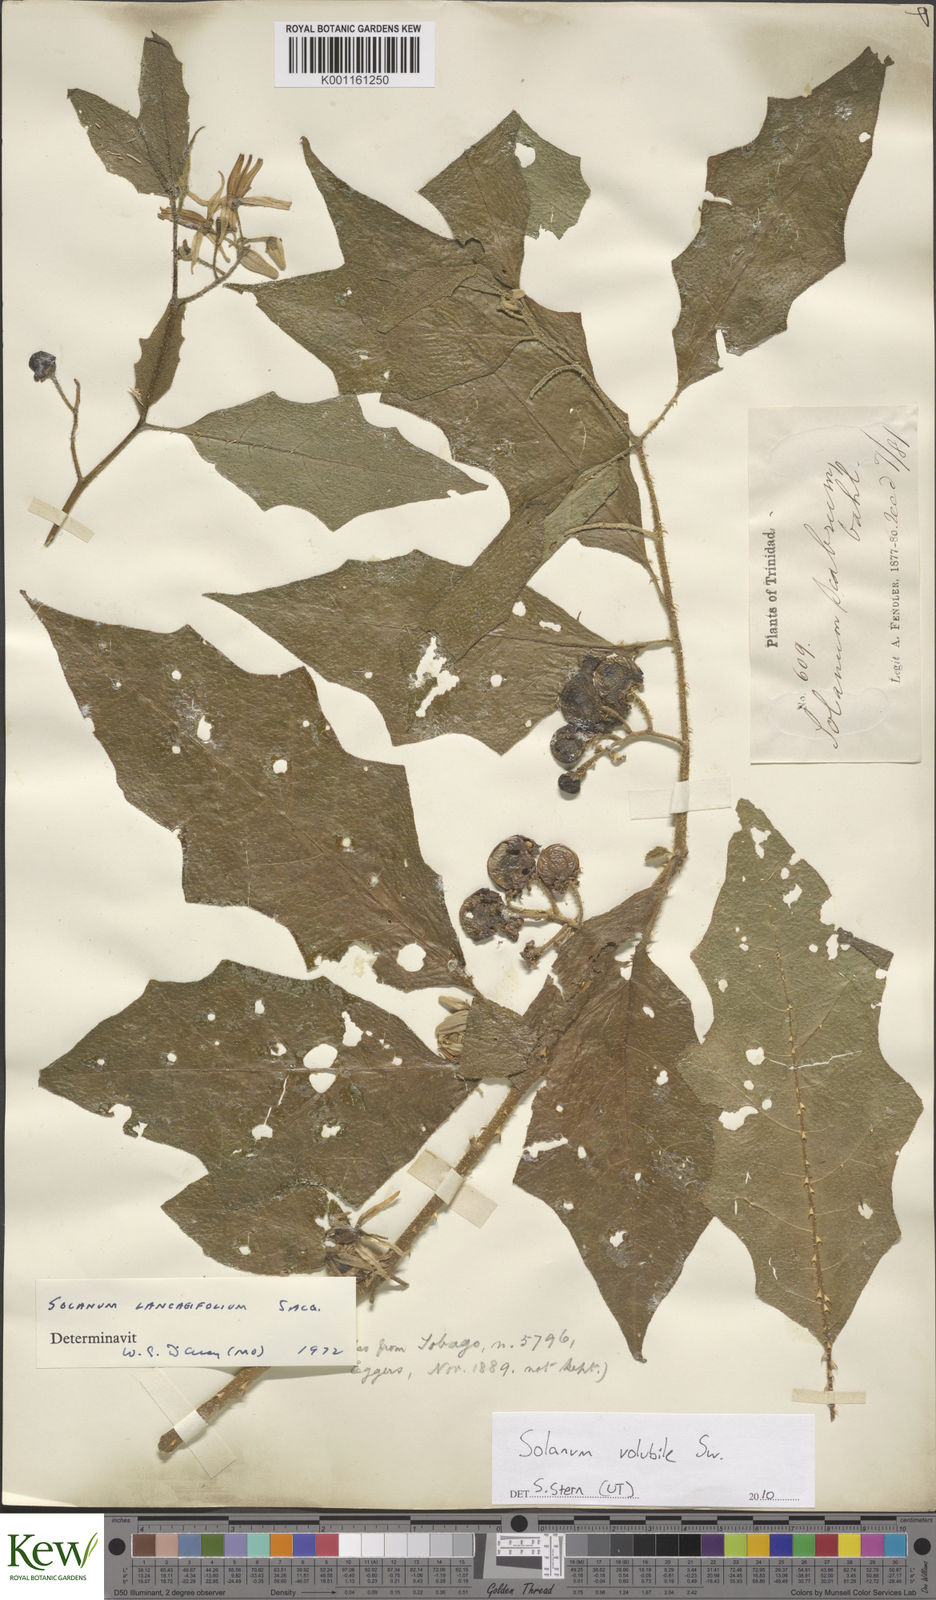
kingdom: Plantae
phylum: Tracheophyta
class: Magnoliopsida
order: Solanales
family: Solanaceae
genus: Solanum
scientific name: Solanum volubile
